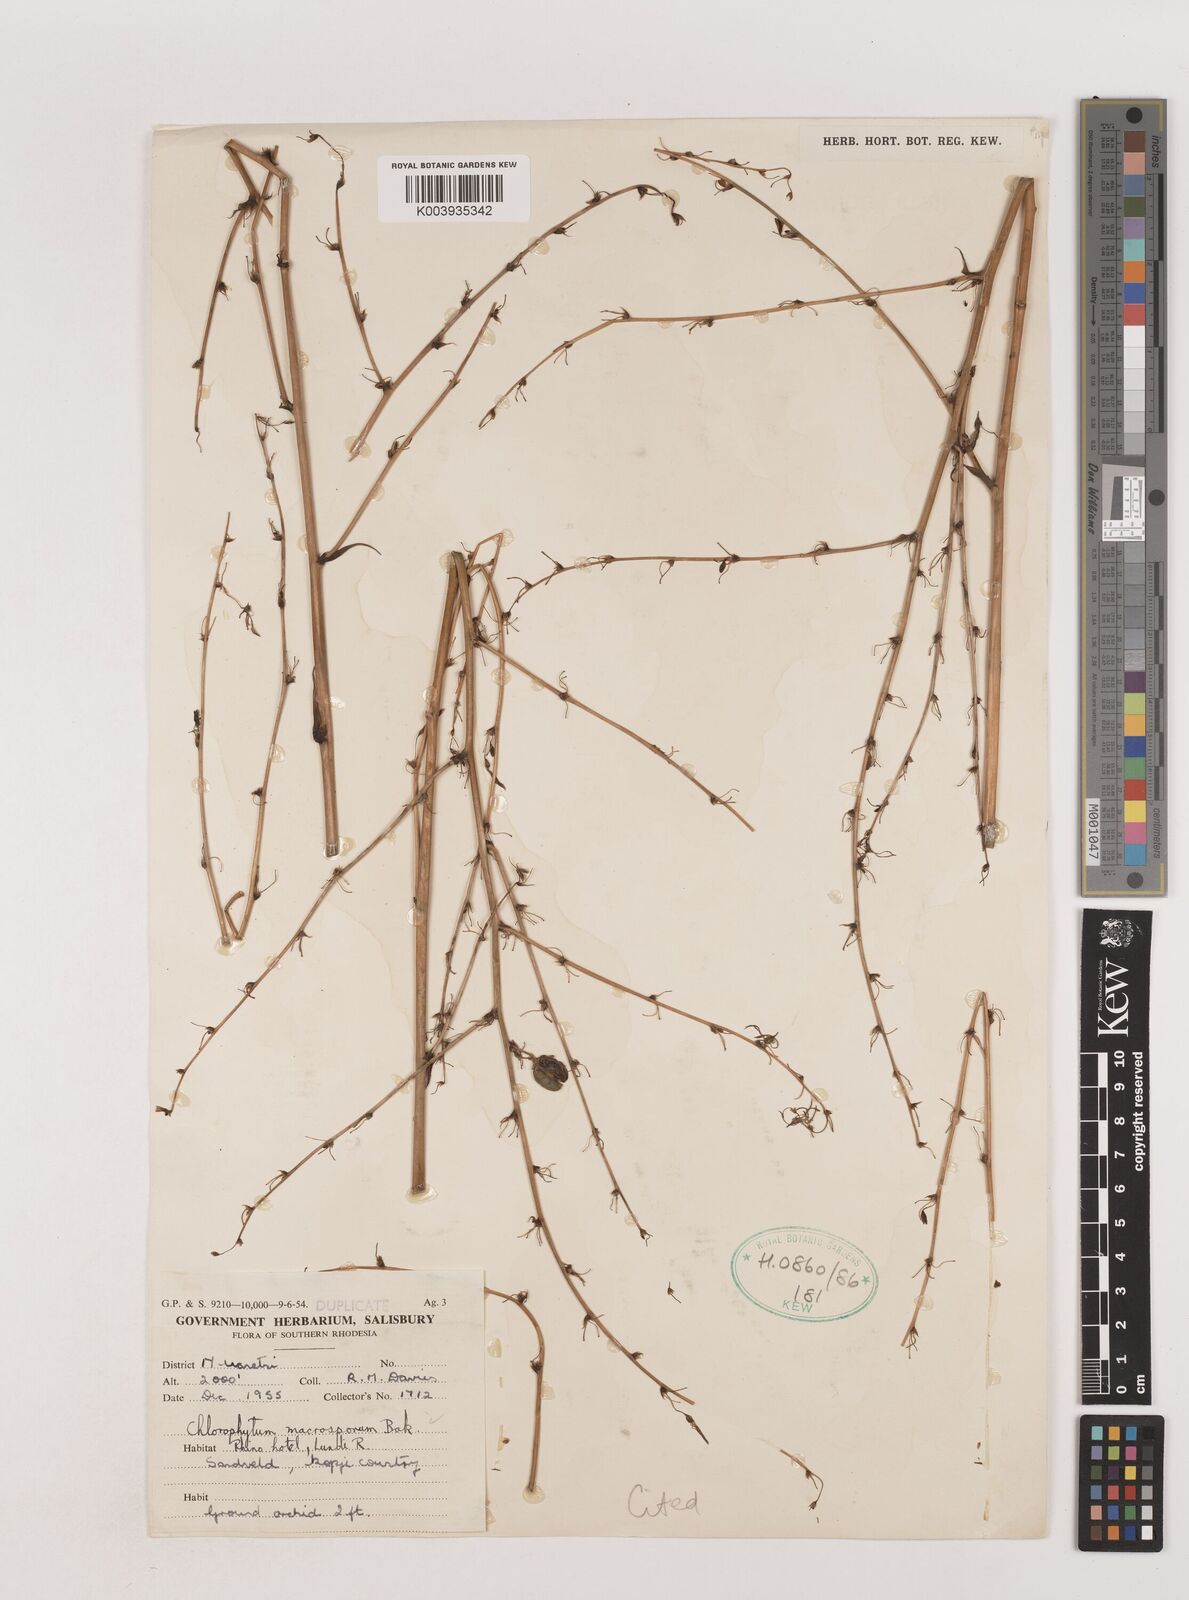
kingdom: Plantae
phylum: Tracheophyta
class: Liliopsida
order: Asparagales
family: Asparagaceae
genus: Chlorophytum
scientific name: Chlorophytum macrosporum
